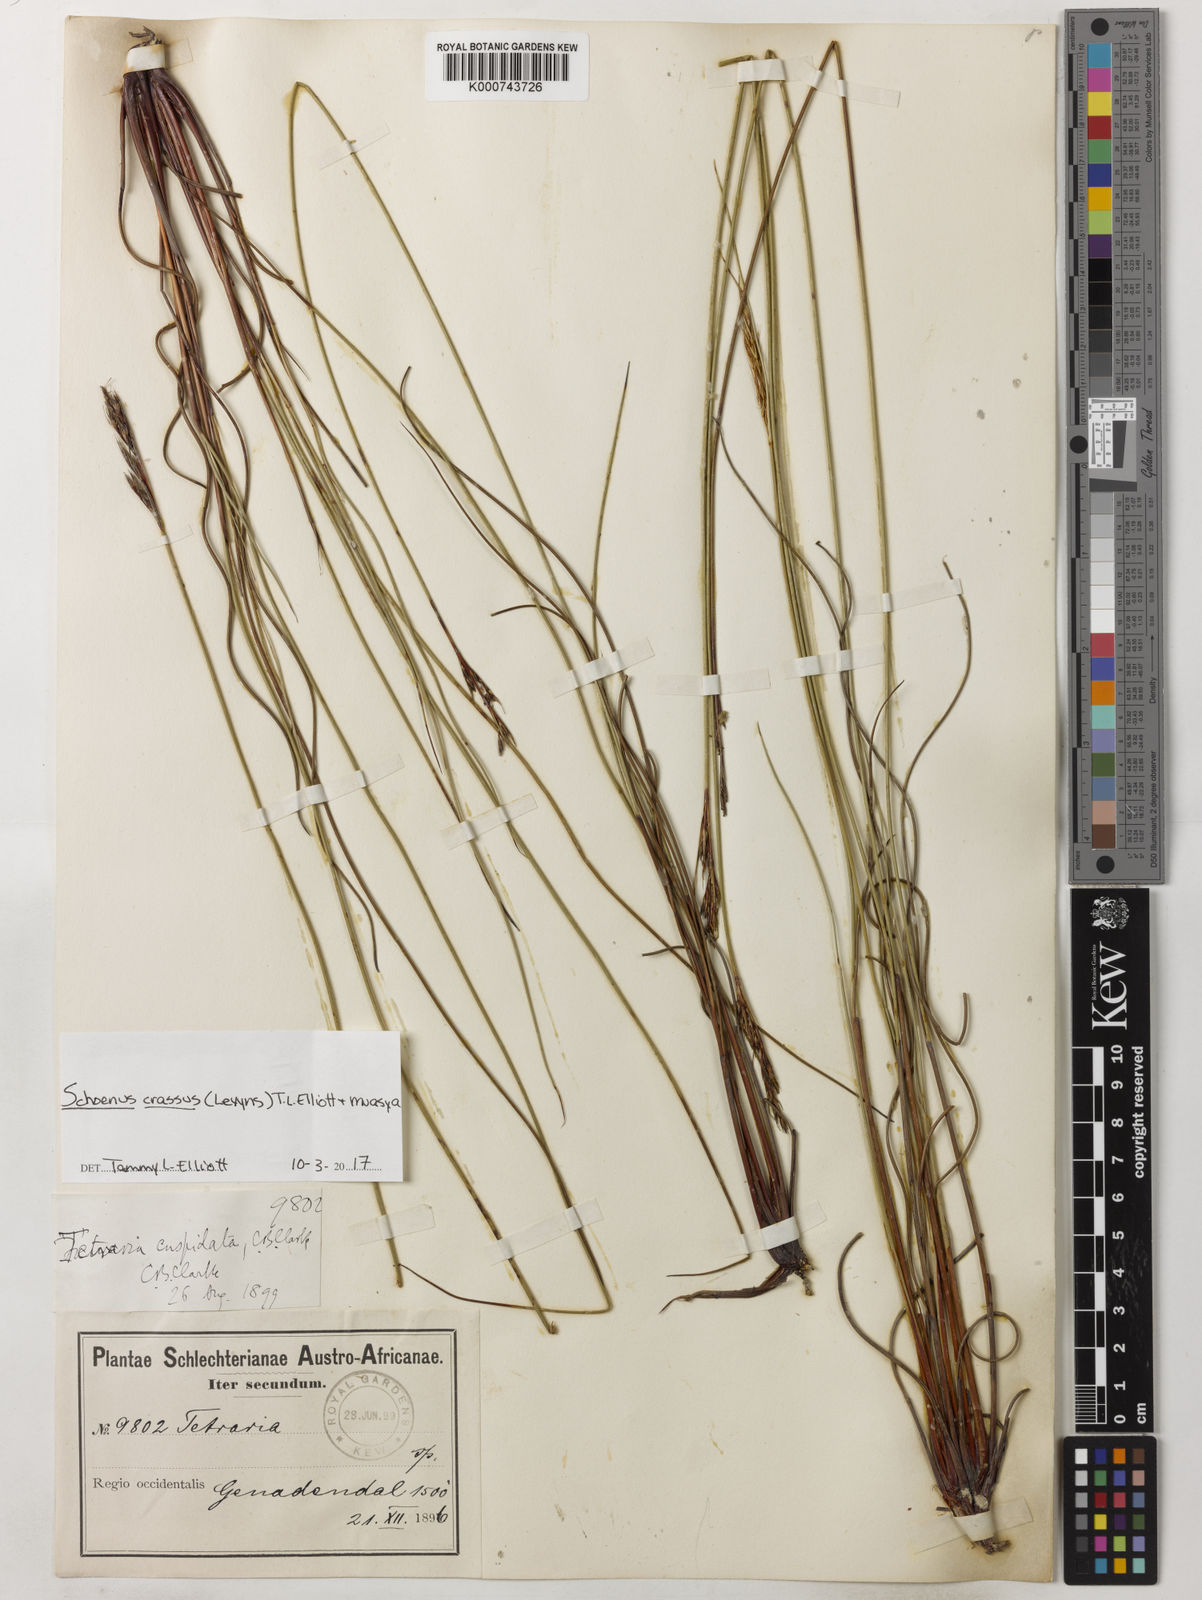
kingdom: Plantae
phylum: Tracheophyta
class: Liliopsida
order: Poales
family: Cyperaceae
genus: Schoenus
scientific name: Schoenus crassus
